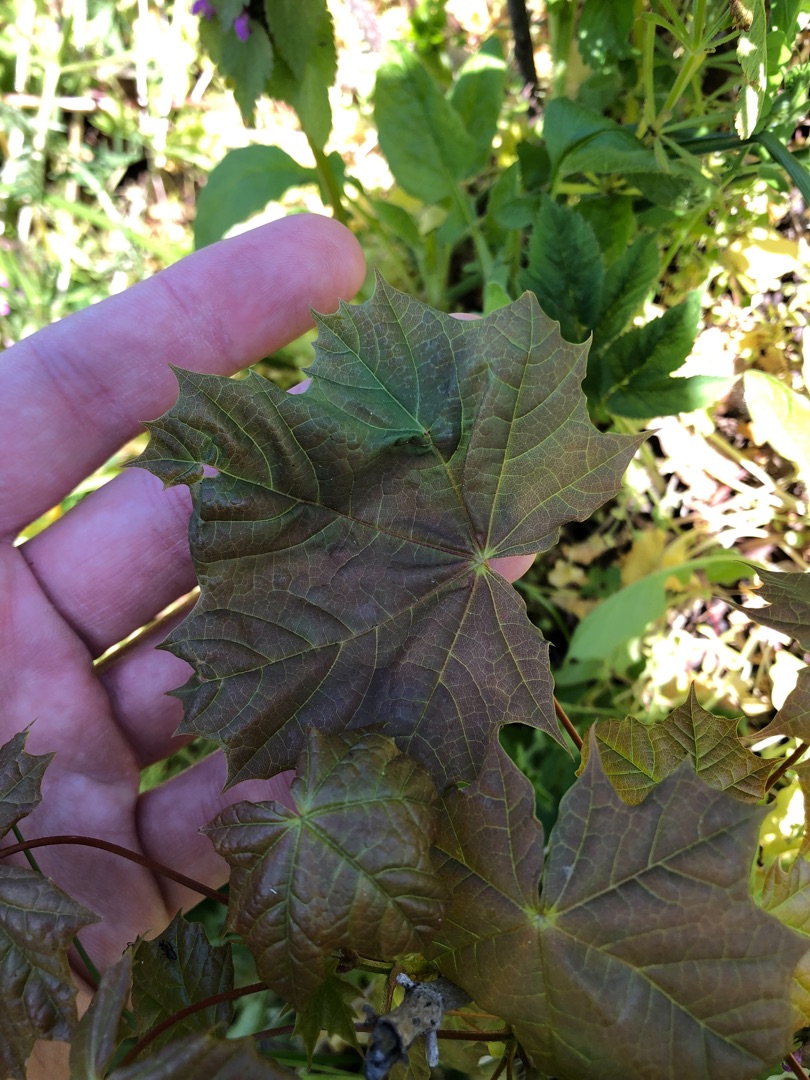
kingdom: Plantae
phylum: Tracheophyta
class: Magnoliopsida
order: Sapindales
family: Sapindaceae
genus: Acer
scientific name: Acer platanoides
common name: Spids-løn
